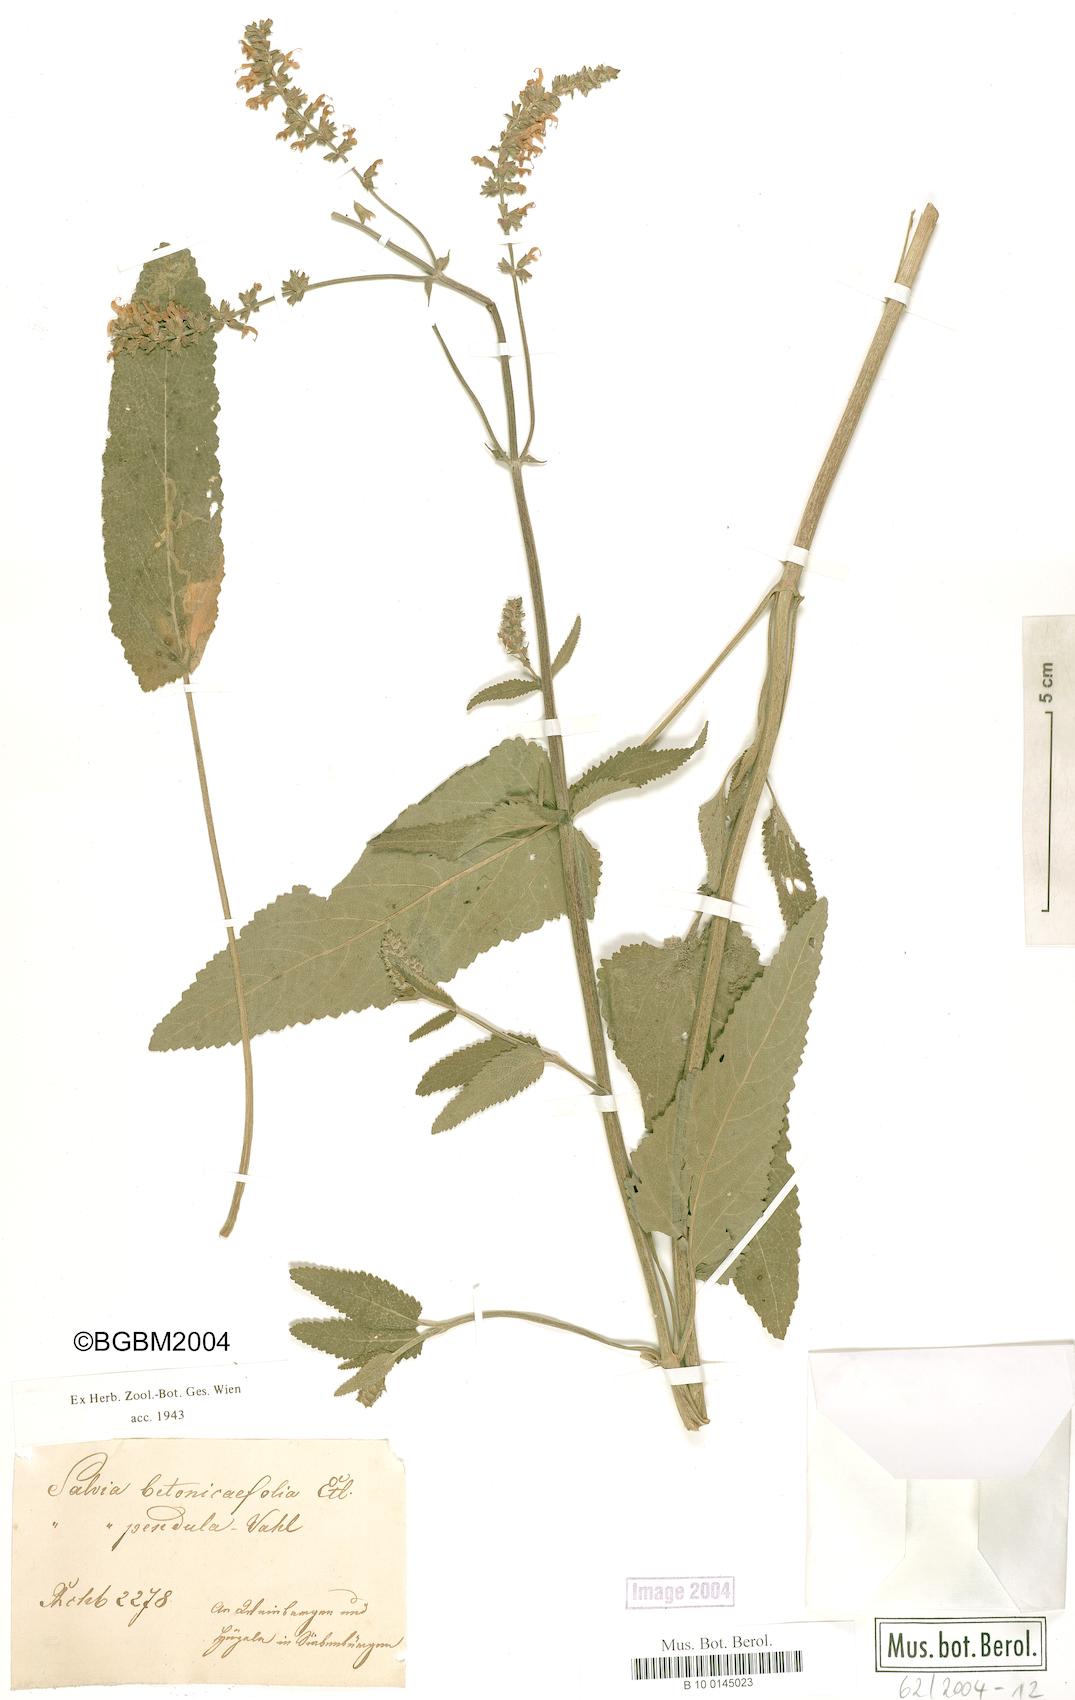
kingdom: Plantae
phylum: Tracheophyta
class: Magnoliopsida
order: Lamiales
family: Lamiaceae
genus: Salvia
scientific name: Salvia
